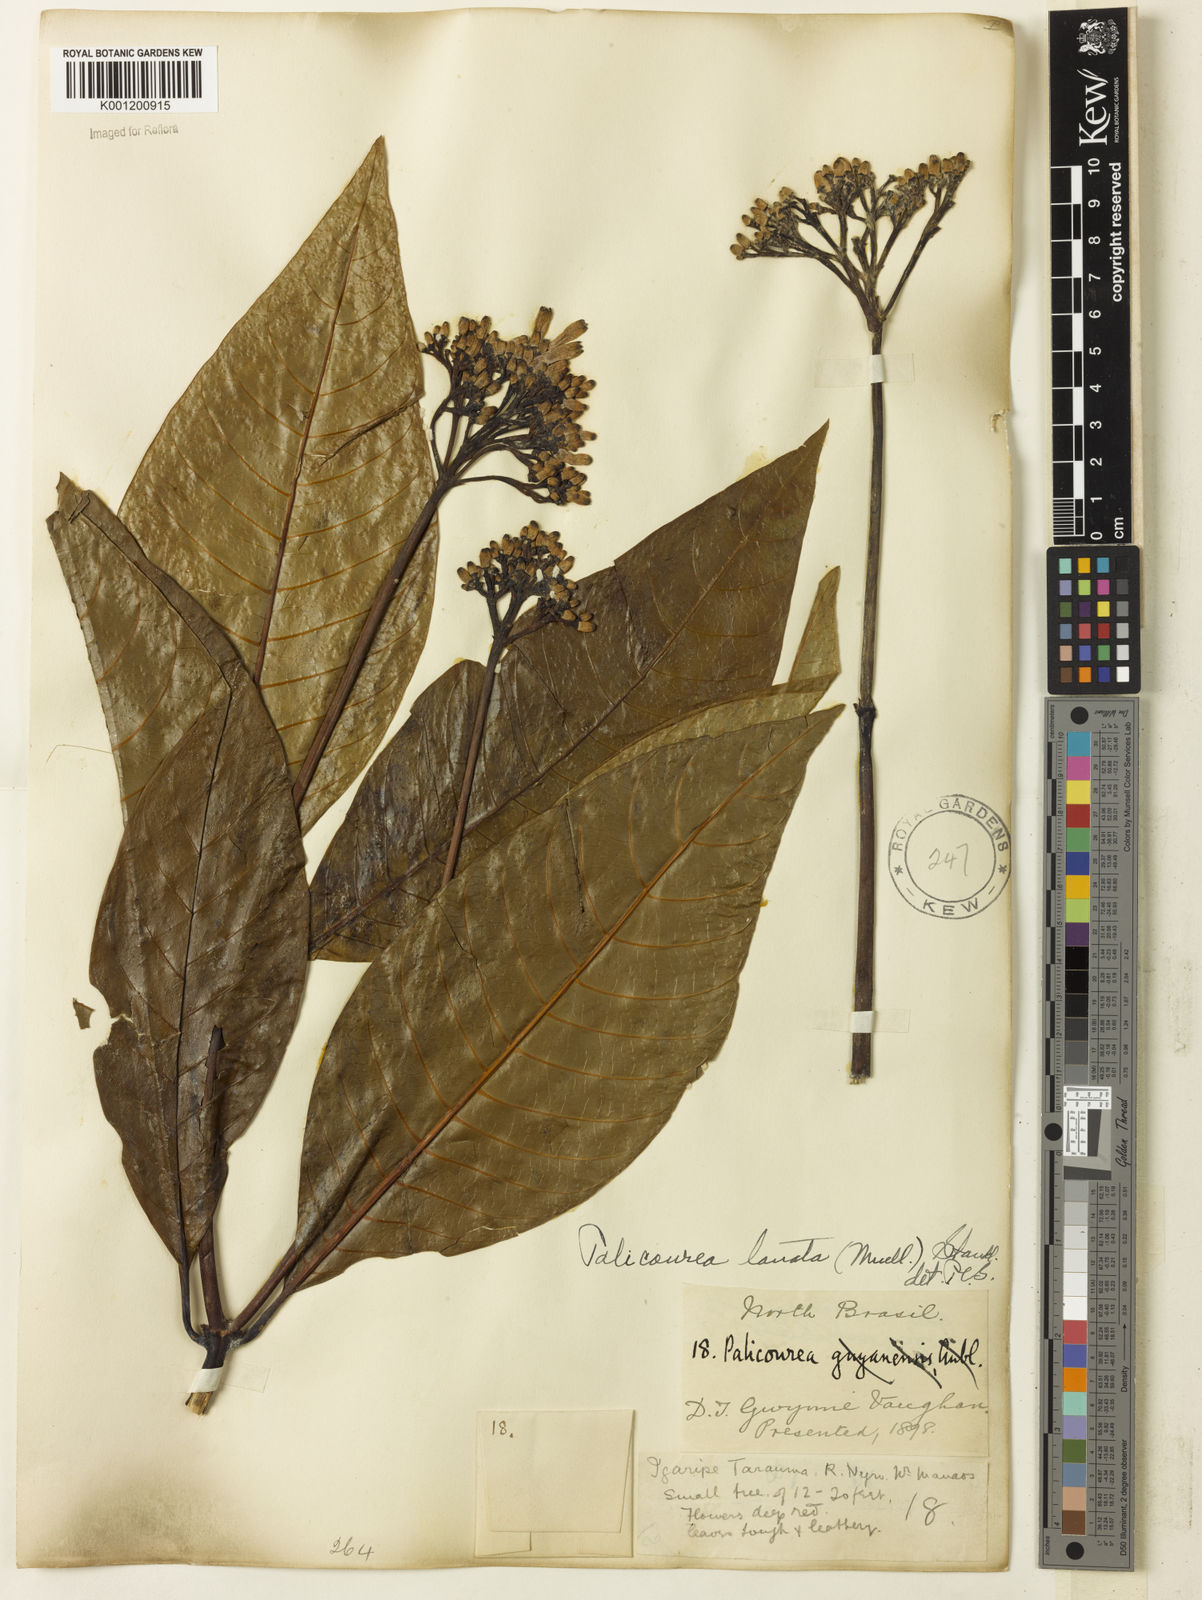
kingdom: Plantae
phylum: Tracheophyta
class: Magnoliopsida
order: Gentianales
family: Rubiaceae
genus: Palicourea
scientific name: Palicourea
